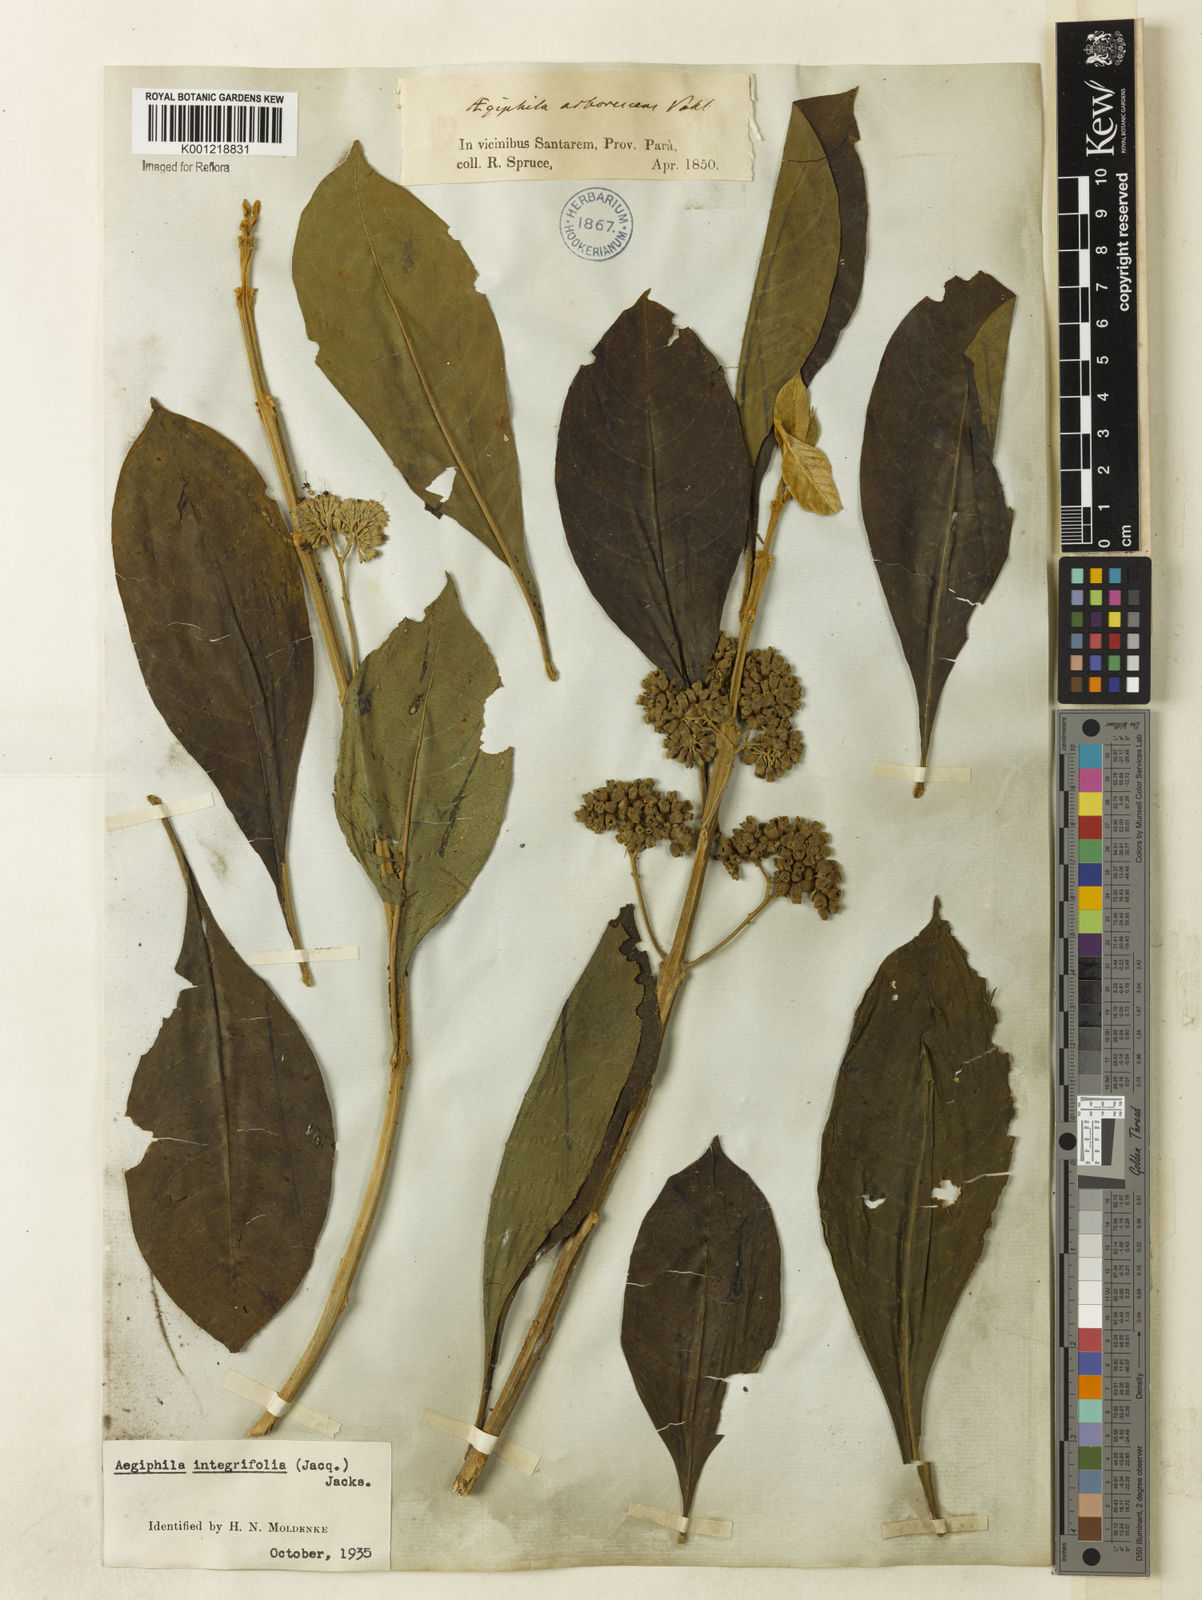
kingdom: Plantae
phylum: Tracheophyta
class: Magnoliopsida
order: Lamiales
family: Lamiaceae
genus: Aegiphila
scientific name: Aegiphila
